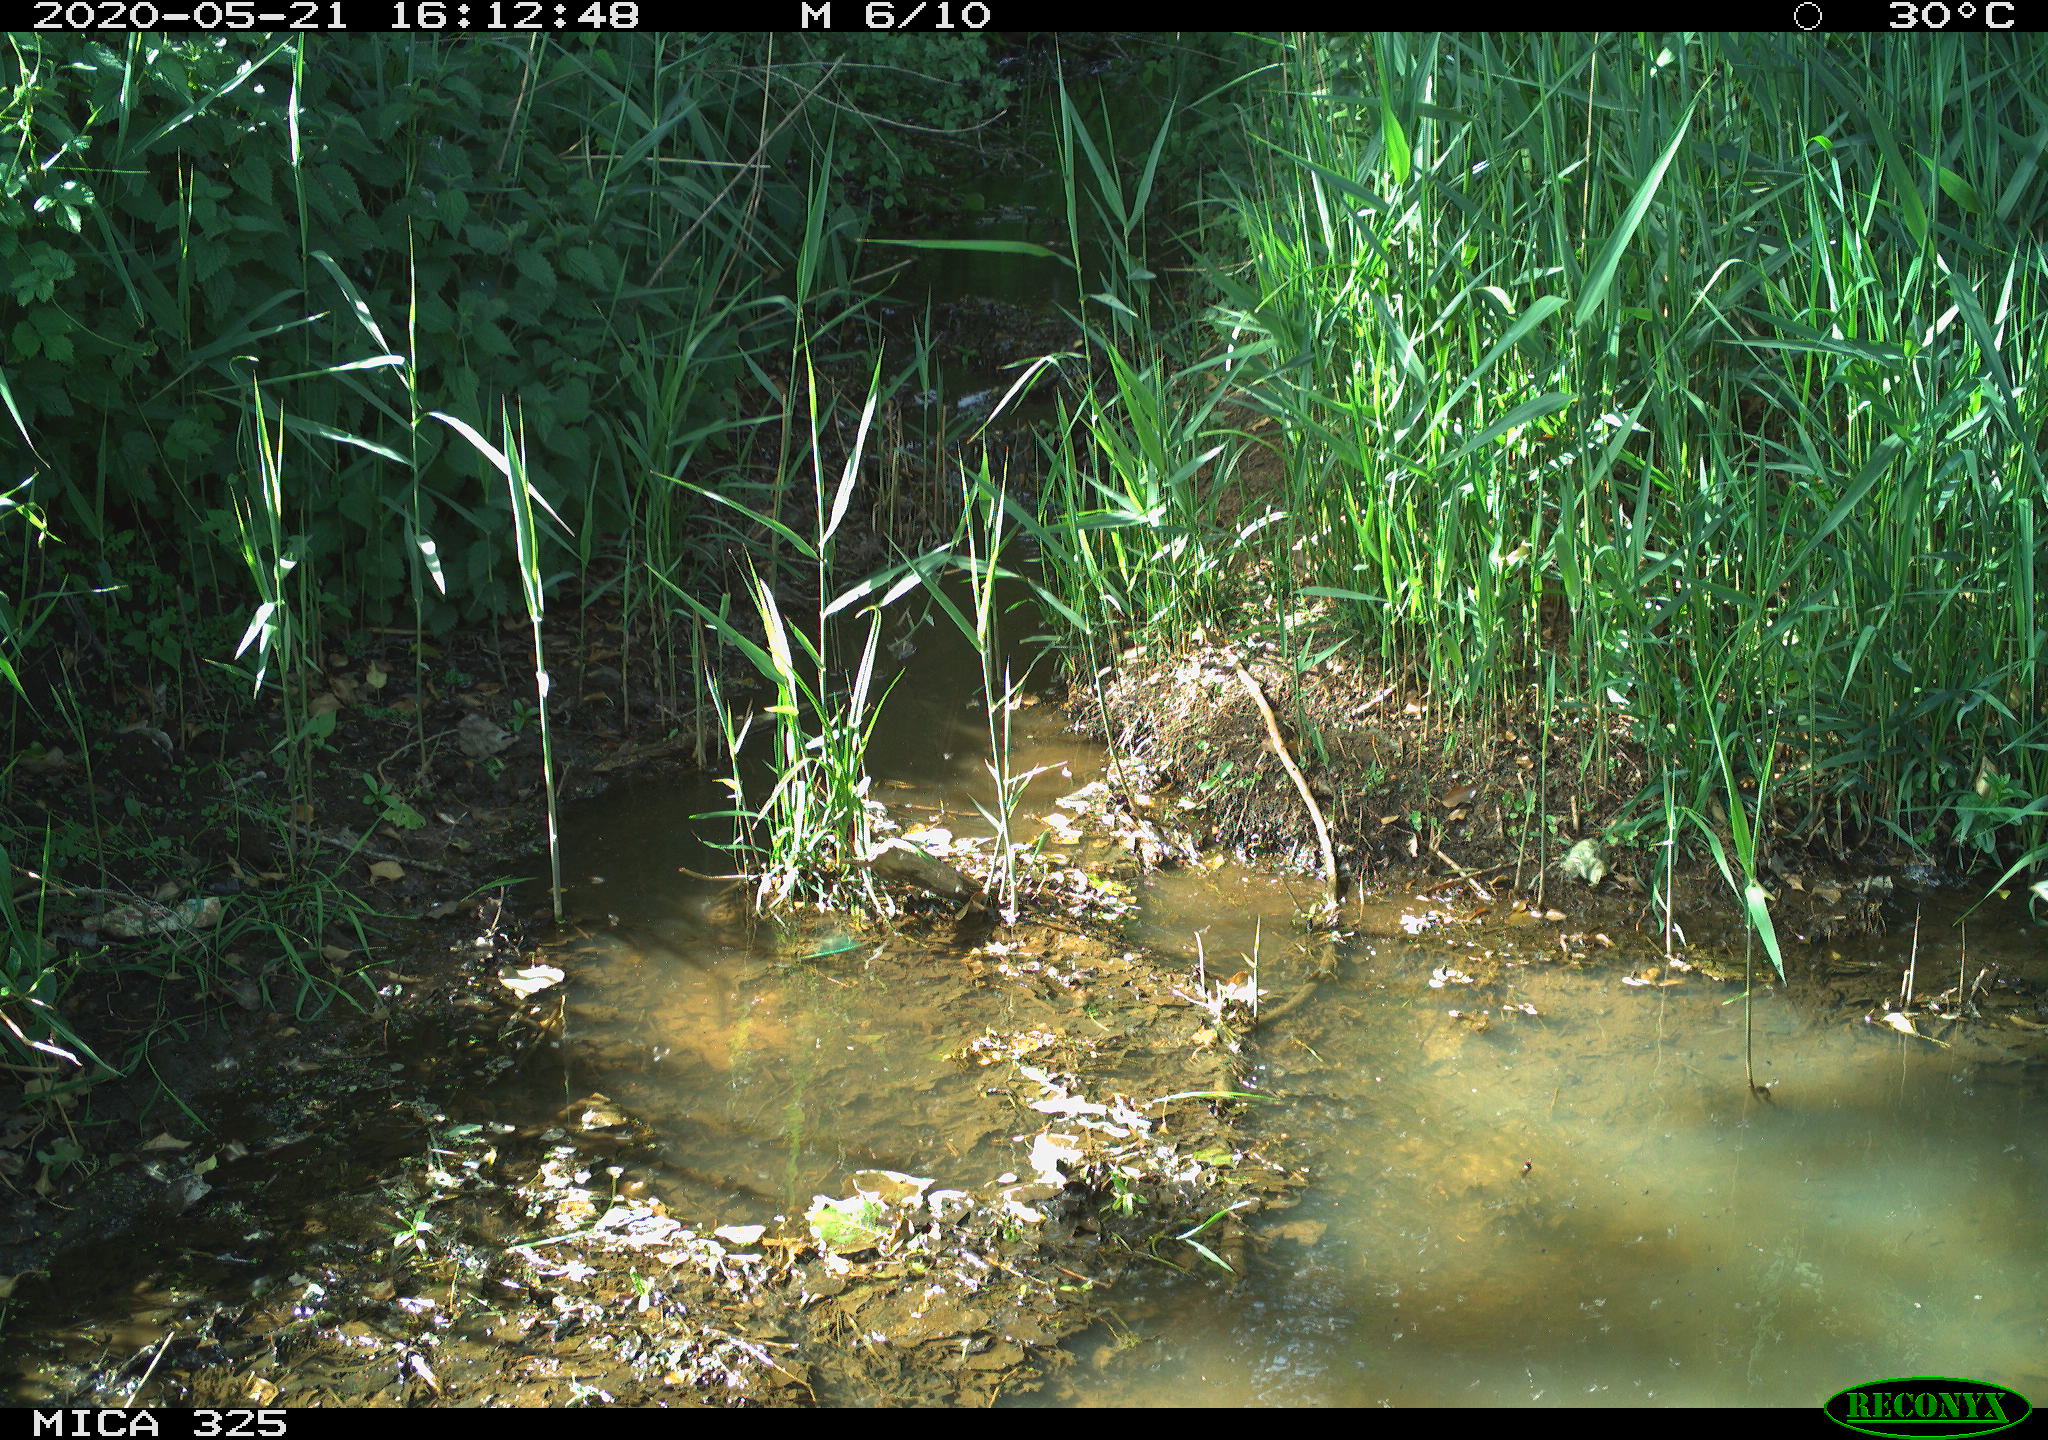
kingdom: Animalia
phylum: Chordata
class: Aves
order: Anseriformes
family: Anatidae
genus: Anas
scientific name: Anas platyrhynchos
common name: Mallard
